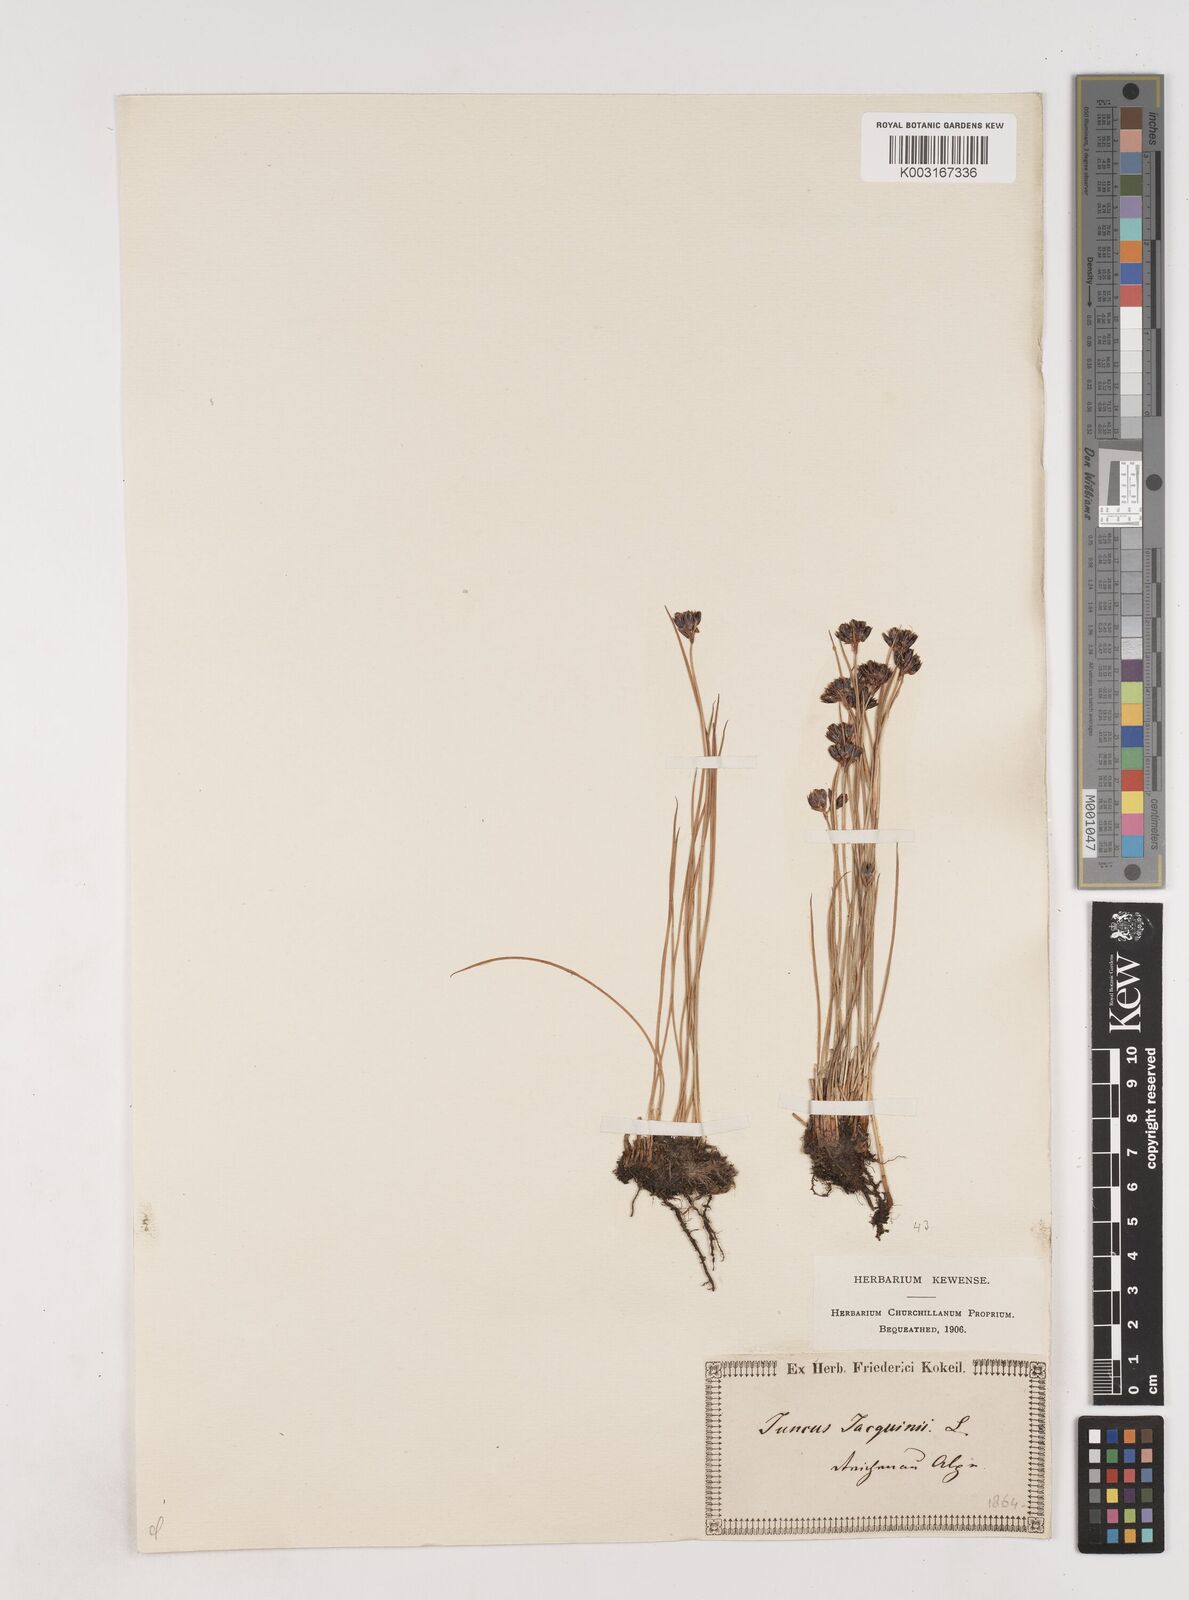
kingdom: Plantae
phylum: Tracheophyta
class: Liliopsida
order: Poales
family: Juncaceae
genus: Juncus
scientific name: Juncus jacquinii
